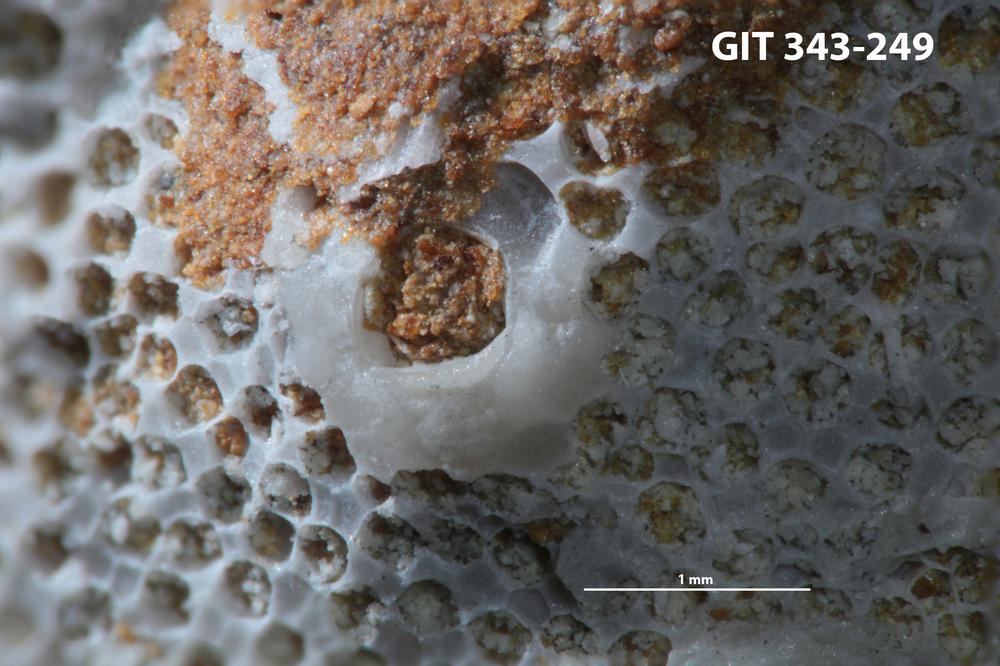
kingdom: Animalia
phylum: Bryozoa
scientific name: Bryozoa
